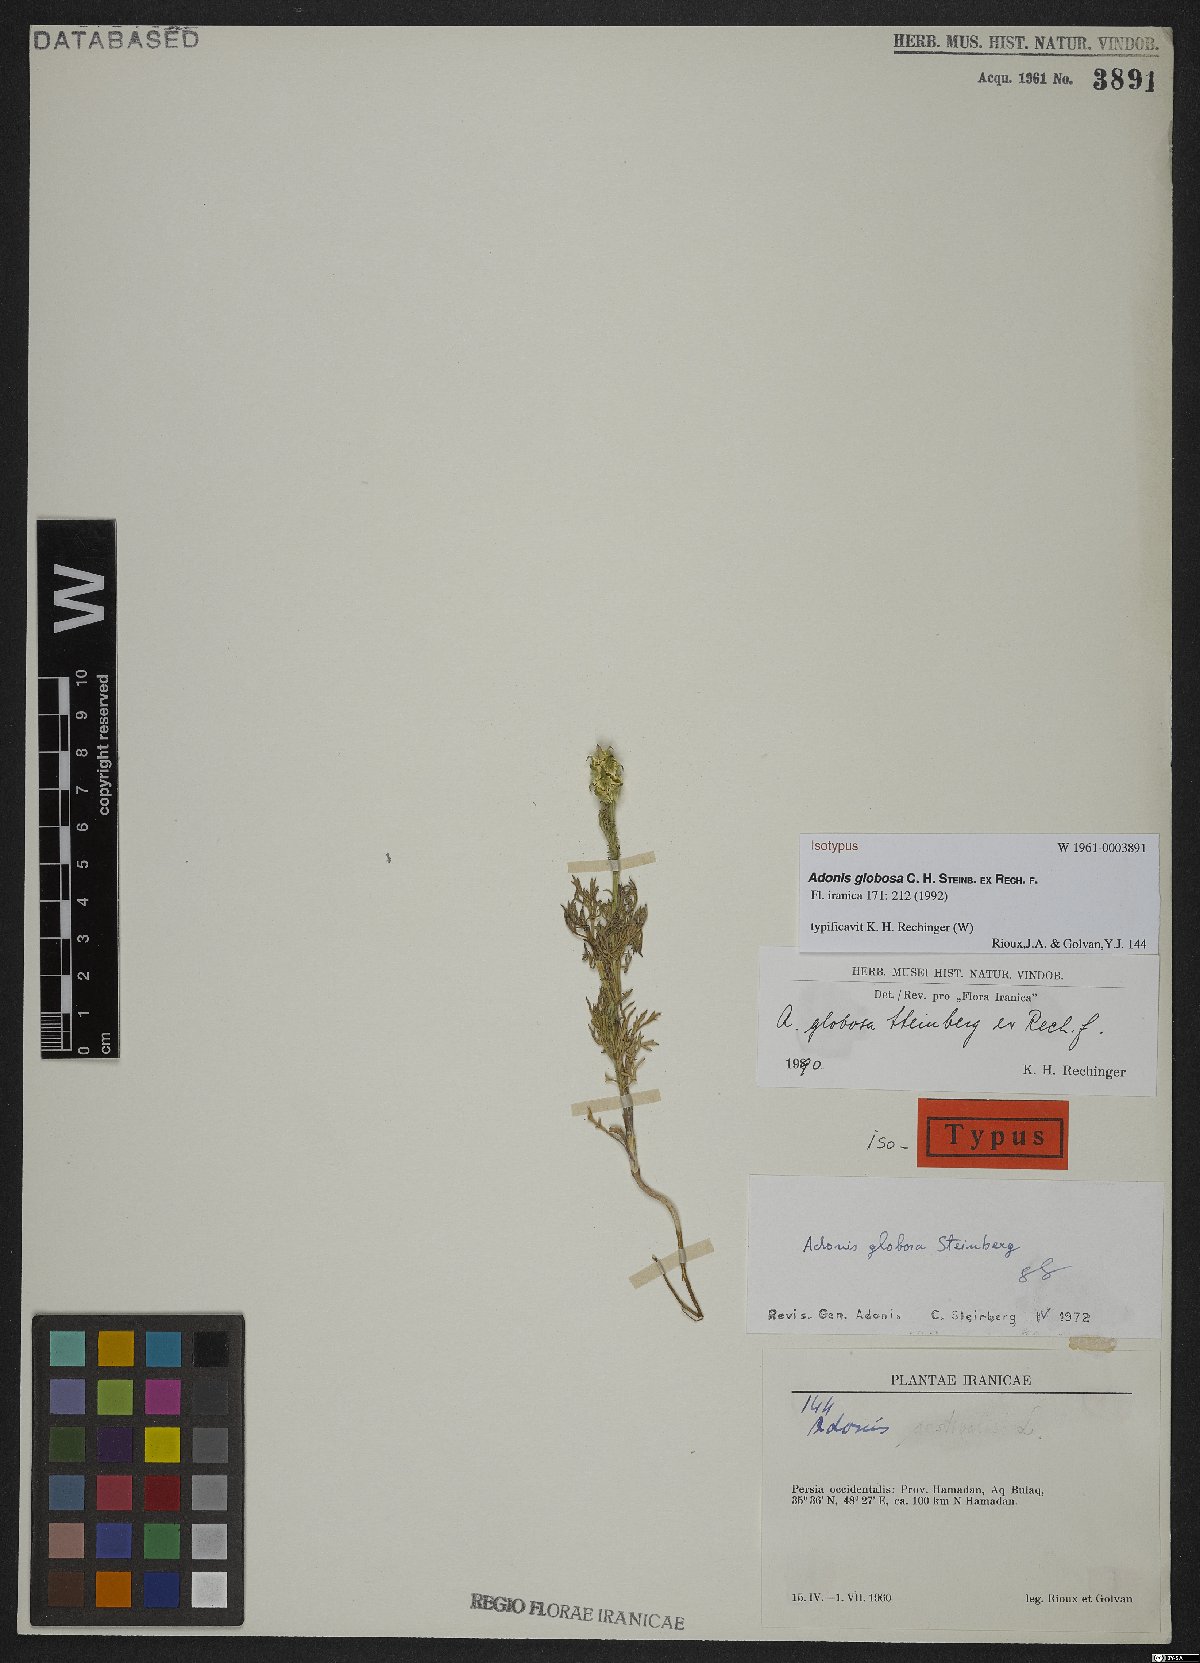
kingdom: Plantae
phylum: Tracheophyta
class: Magnoliopsida
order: Ranunculales
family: Ranunculaceae
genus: Adonis
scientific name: Adonis globosa
